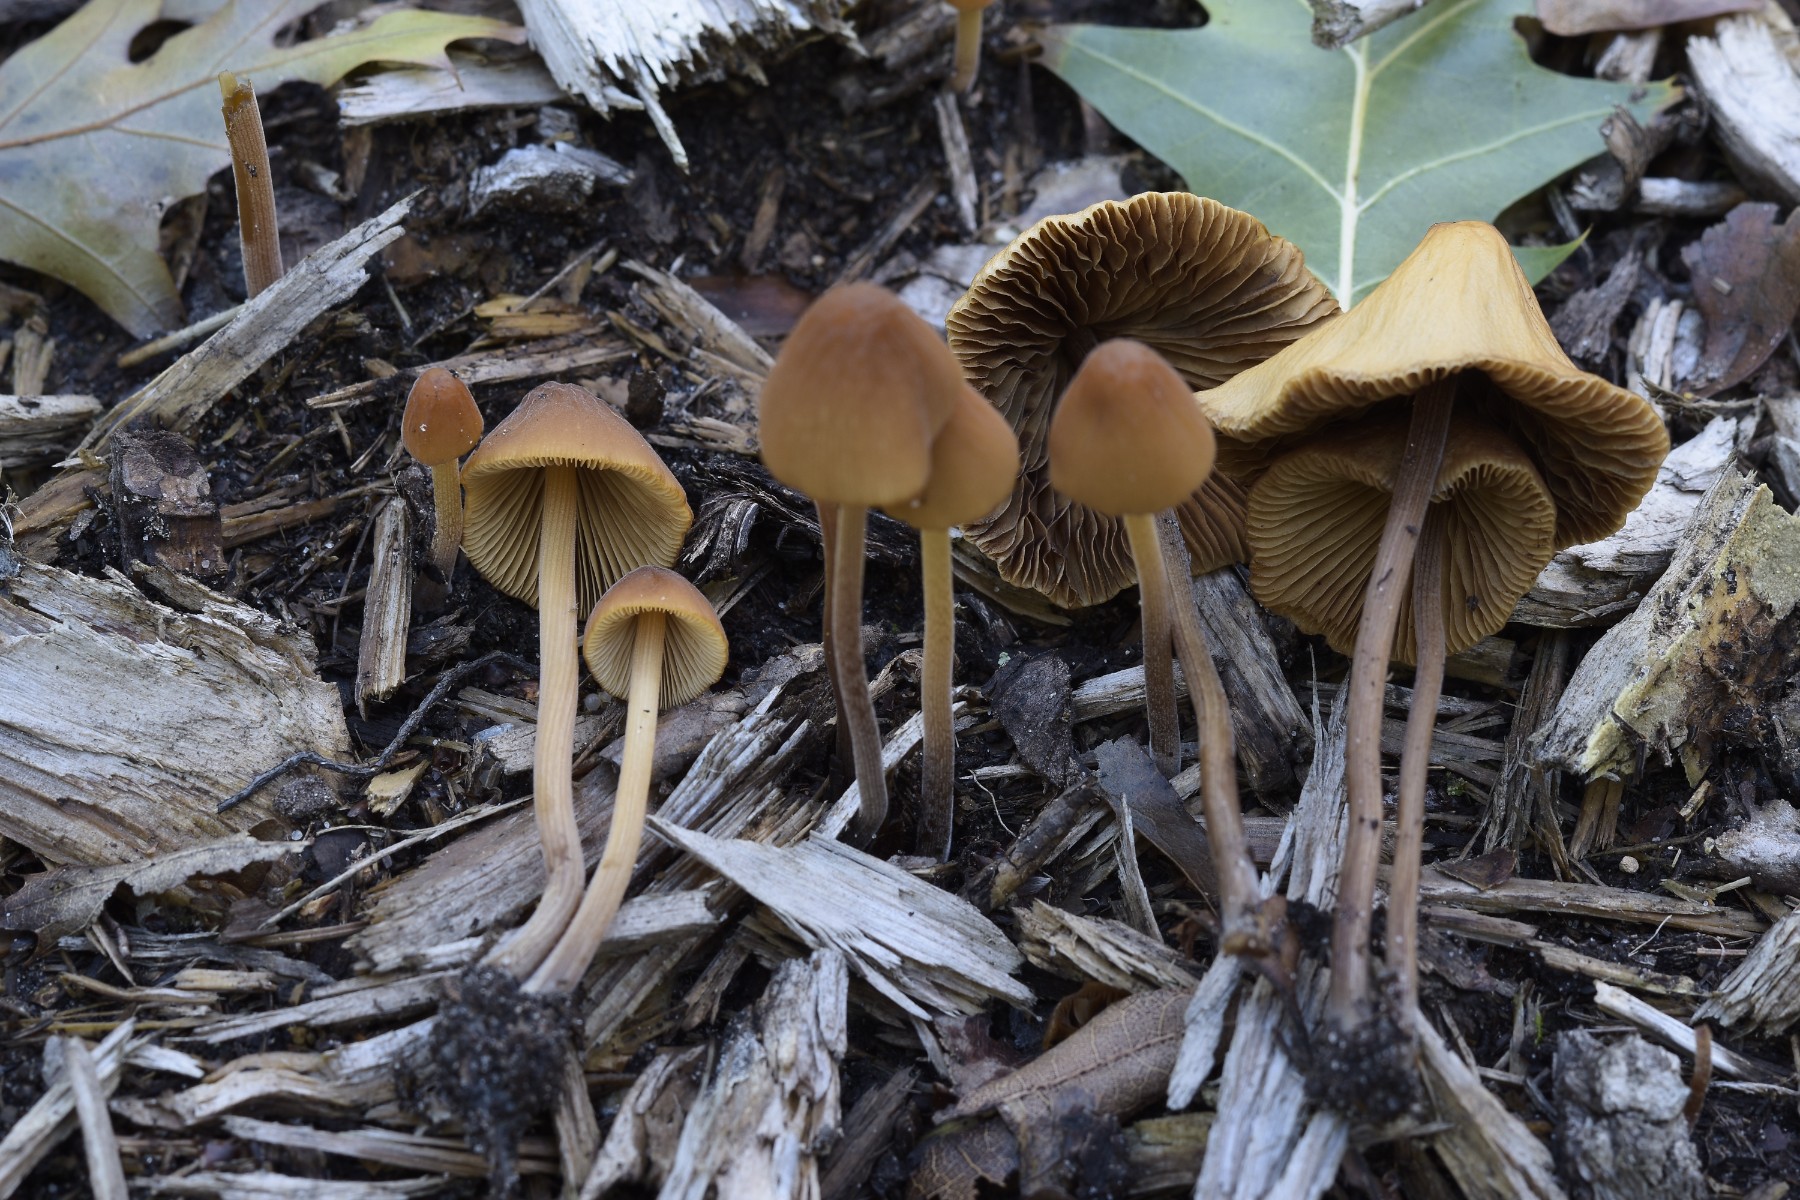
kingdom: Fungi
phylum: Basidiomycota
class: Agaricomycetes
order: Agaricales
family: Bolbitiaceae
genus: Conocybe
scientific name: Conocybe subpubescens
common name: krat-keglehat
